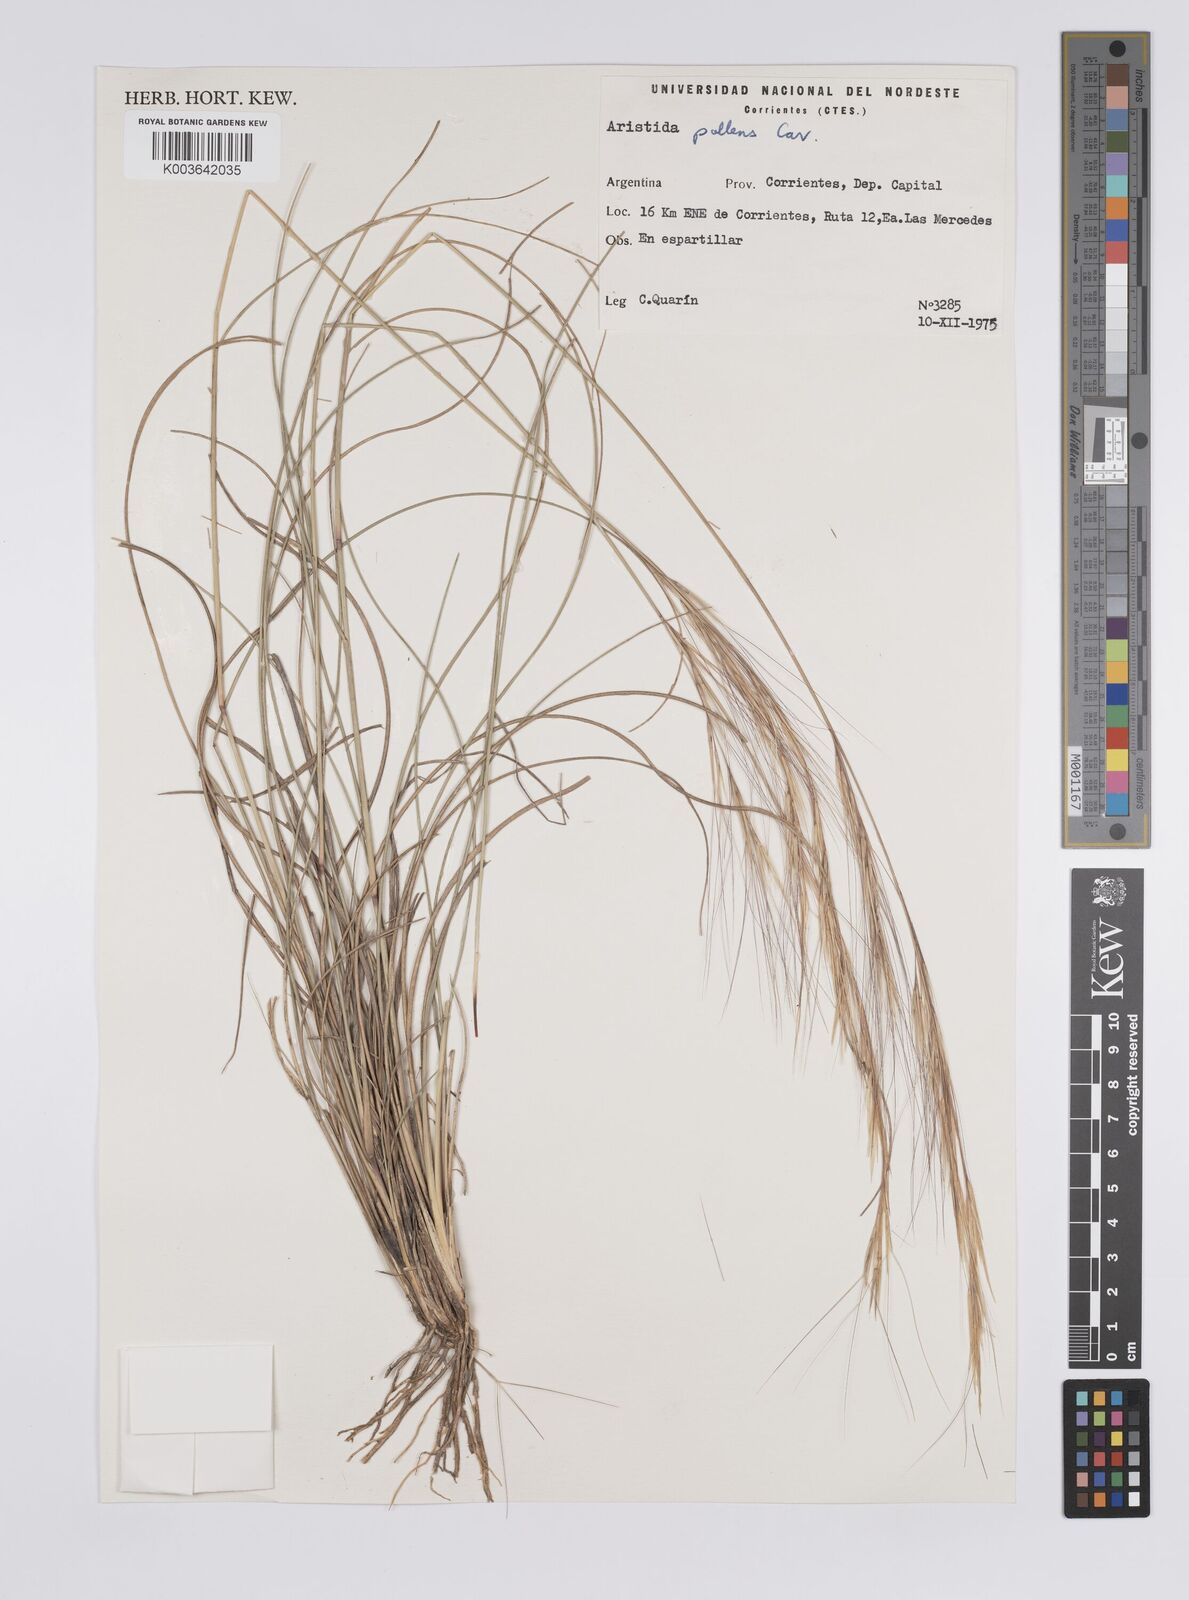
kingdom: Plantae
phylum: Tracheophyta
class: Liliopsida
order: Poales
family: Poaceae
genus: Aristida
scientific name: Aristida pallens
